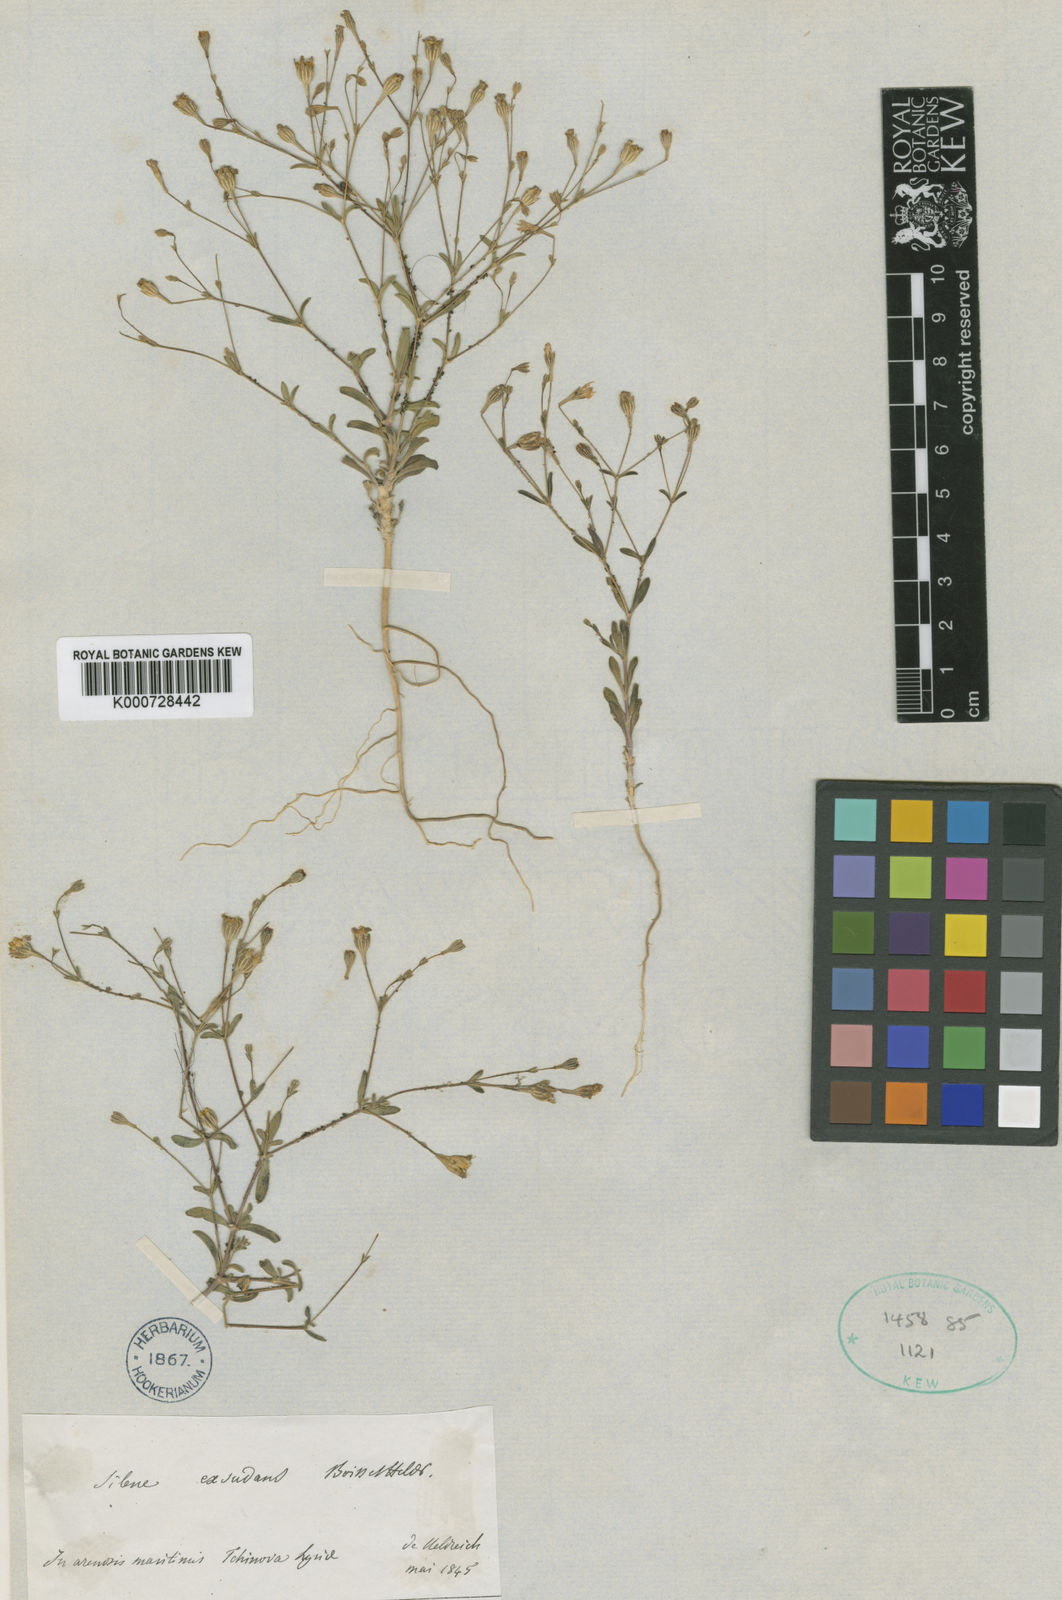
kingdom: Plantae
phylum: Tracheophyta
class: Magnoliopsida
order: Caryophyllales
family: Caryophyllaceae
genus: Silene
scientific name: Silene microsperma
